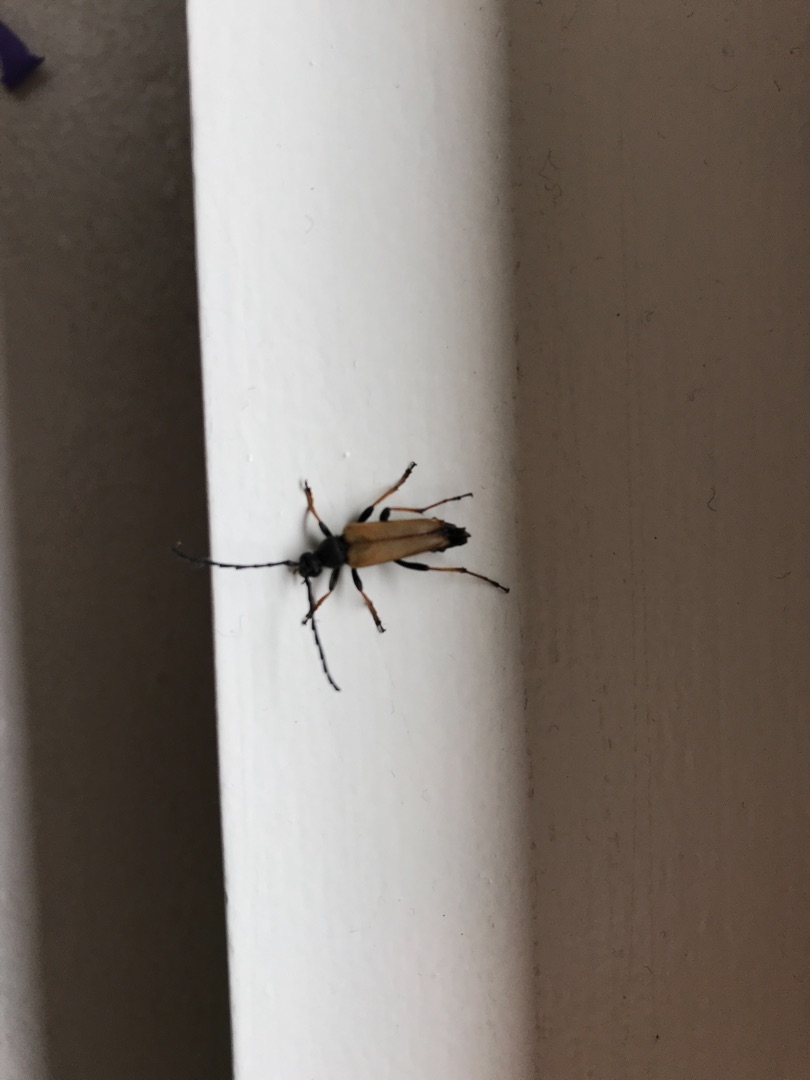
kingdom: Animalia
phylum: Arthropoda
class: Insecta
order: Coleoptera
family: Cerambycidae
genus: Stictoleptura
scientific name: Stictoleptura rubra
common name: Rød blomsterbuk
